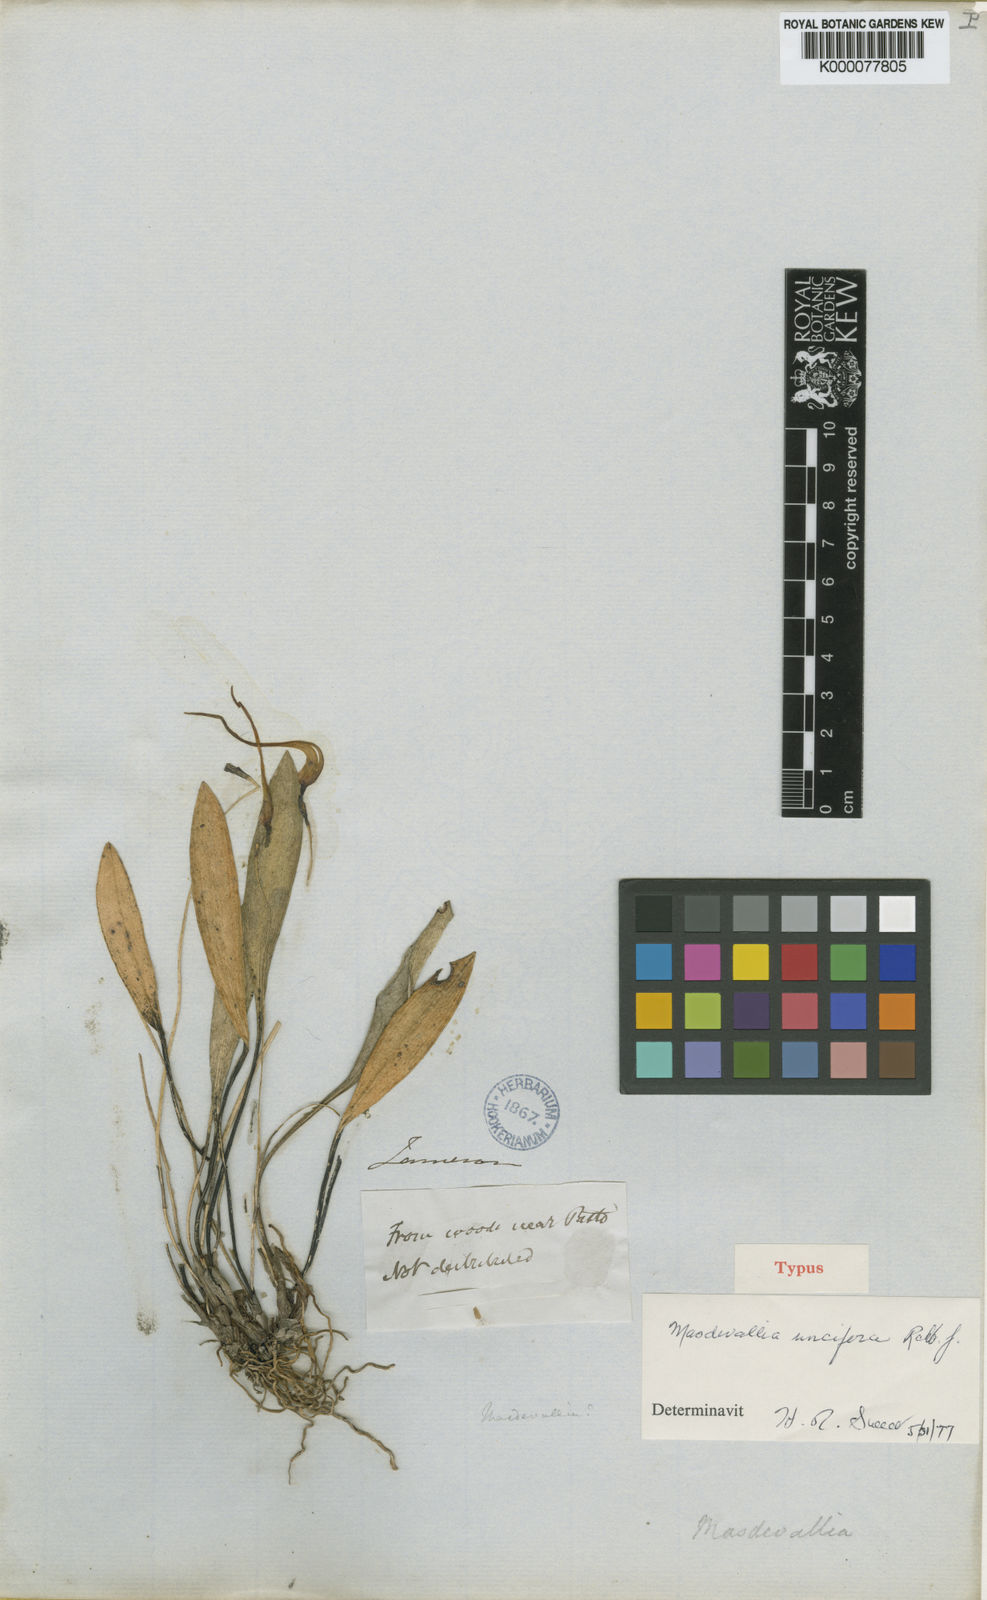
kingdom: Plantae
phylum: Tracheophyta
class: Liliopsida
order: Asparagales
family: Orchidaceae
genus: Masdevallia
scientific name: Masdevallia uncifera
